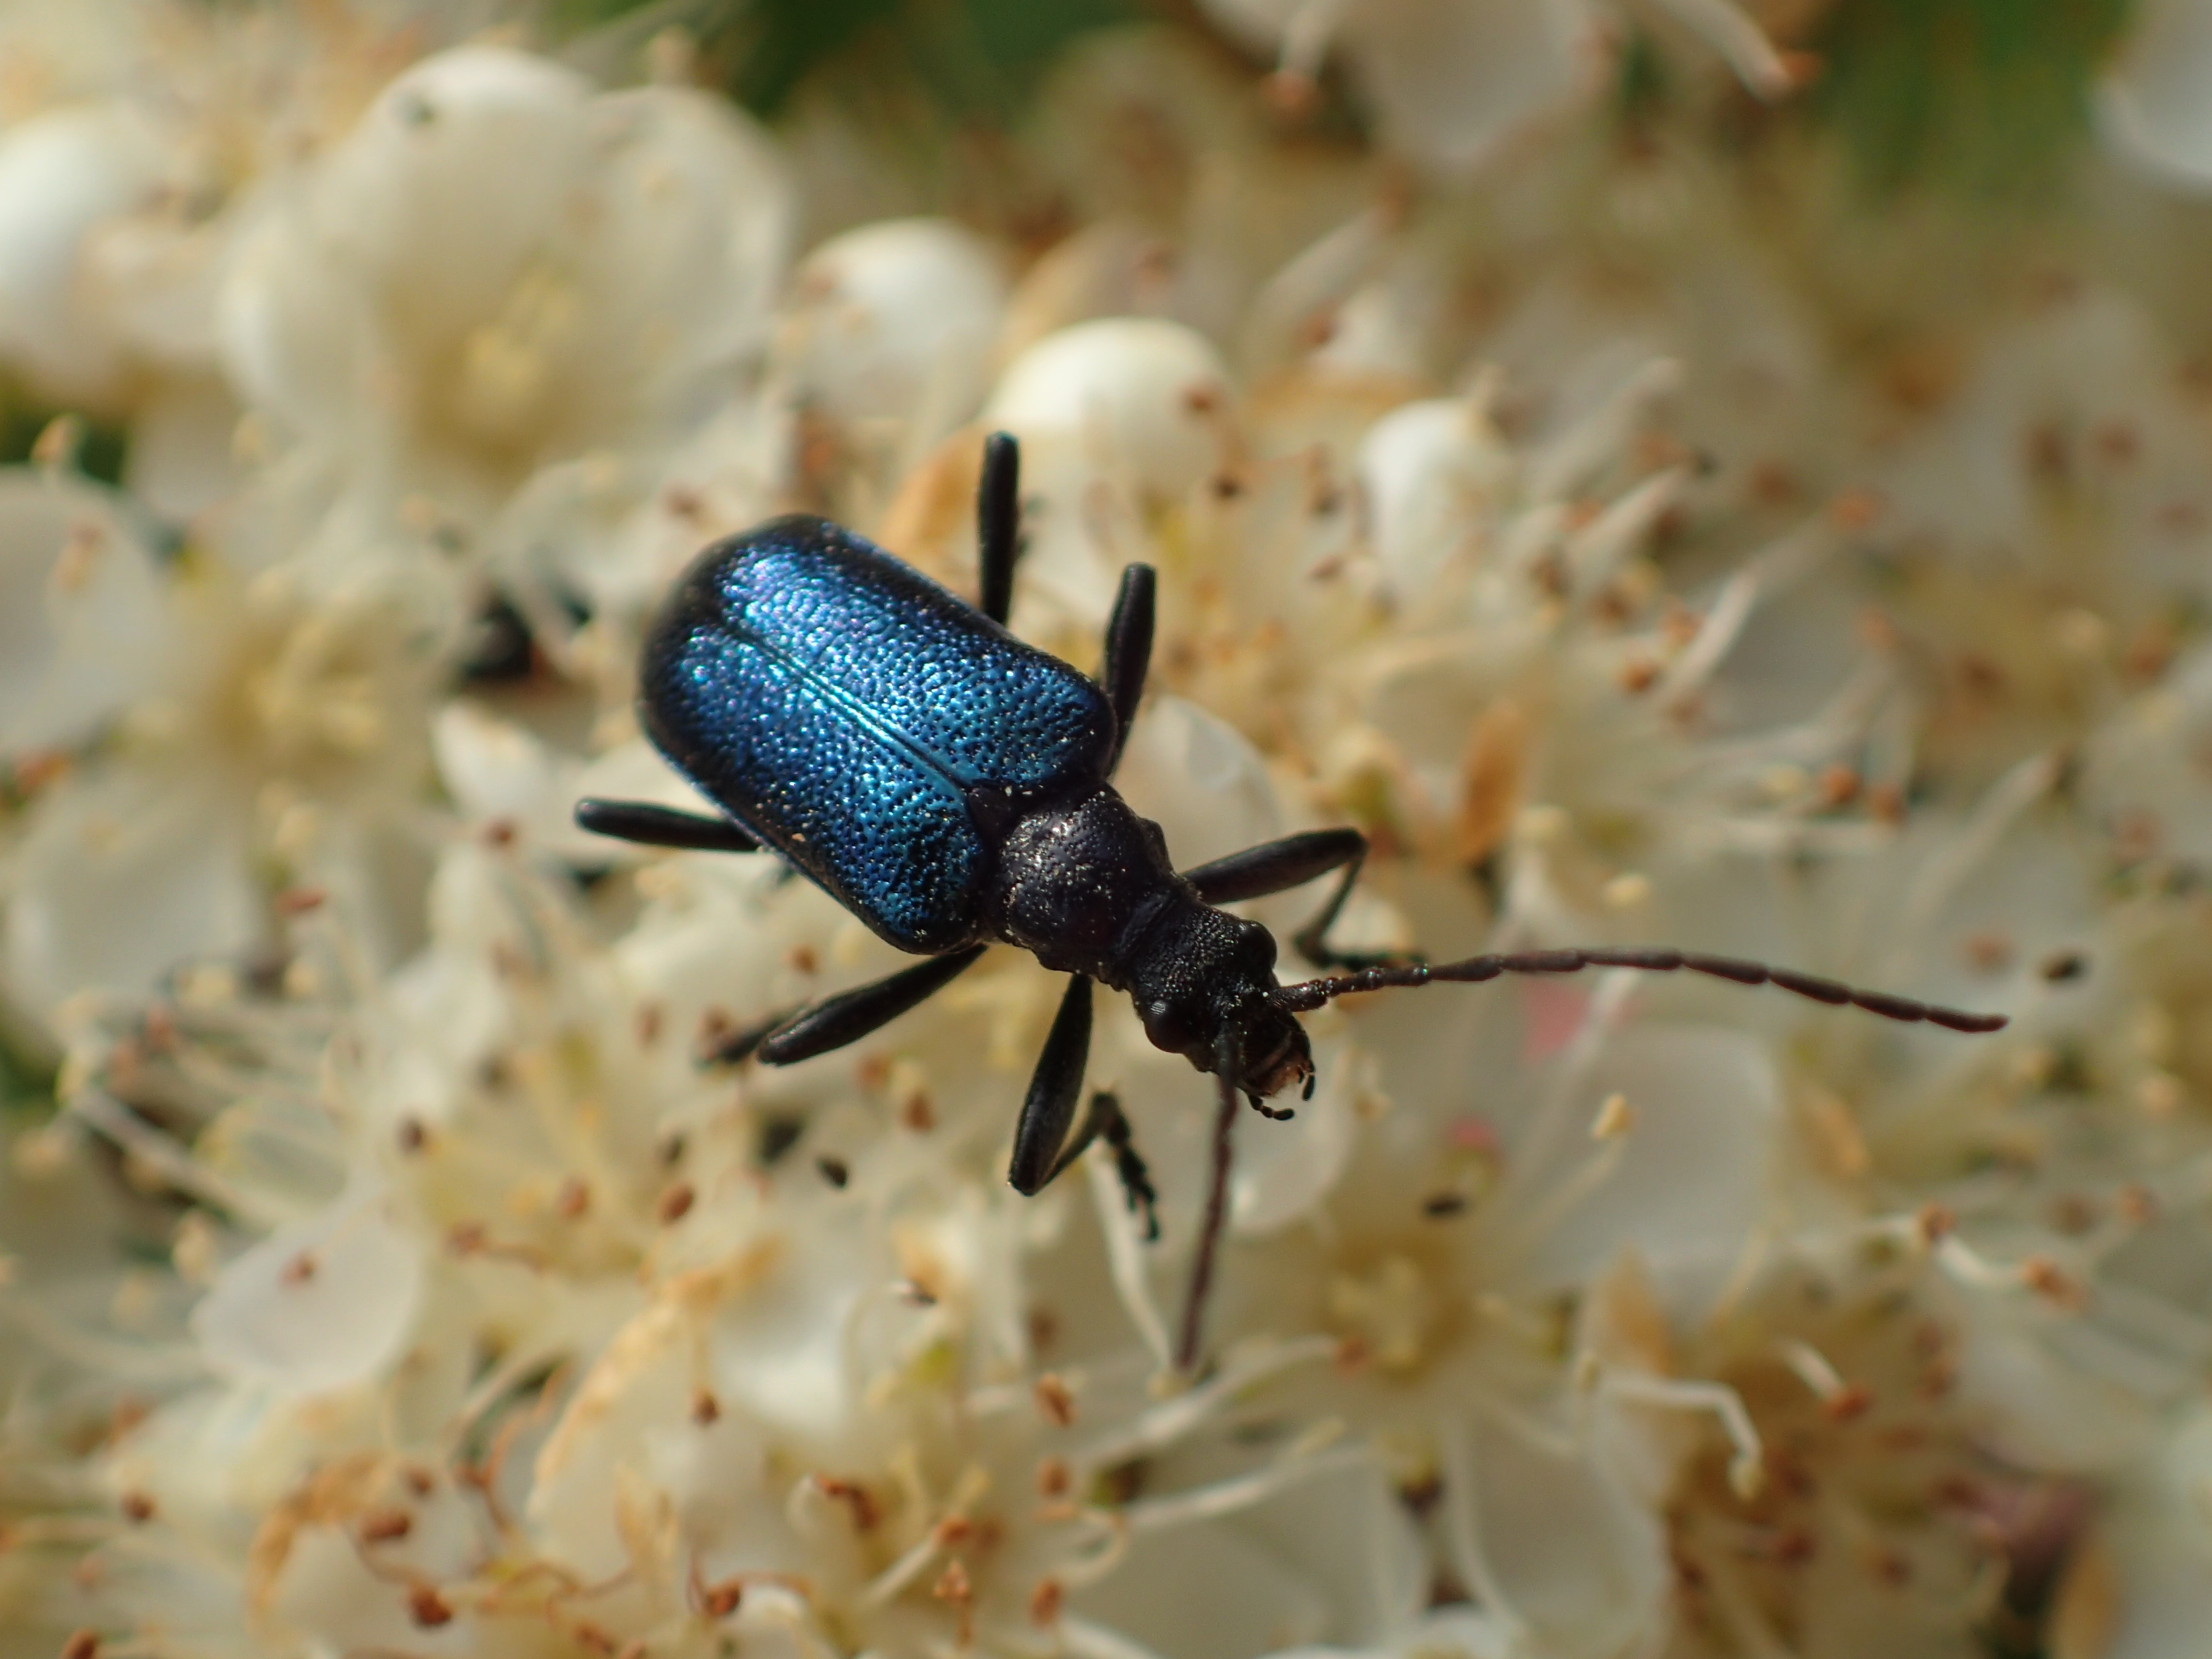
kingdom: Animalia
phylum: Arthropoda
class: Insecta
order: Coleoptera
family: Cerambycidae
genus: Gaurotes
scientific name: Gaurotes virginea
